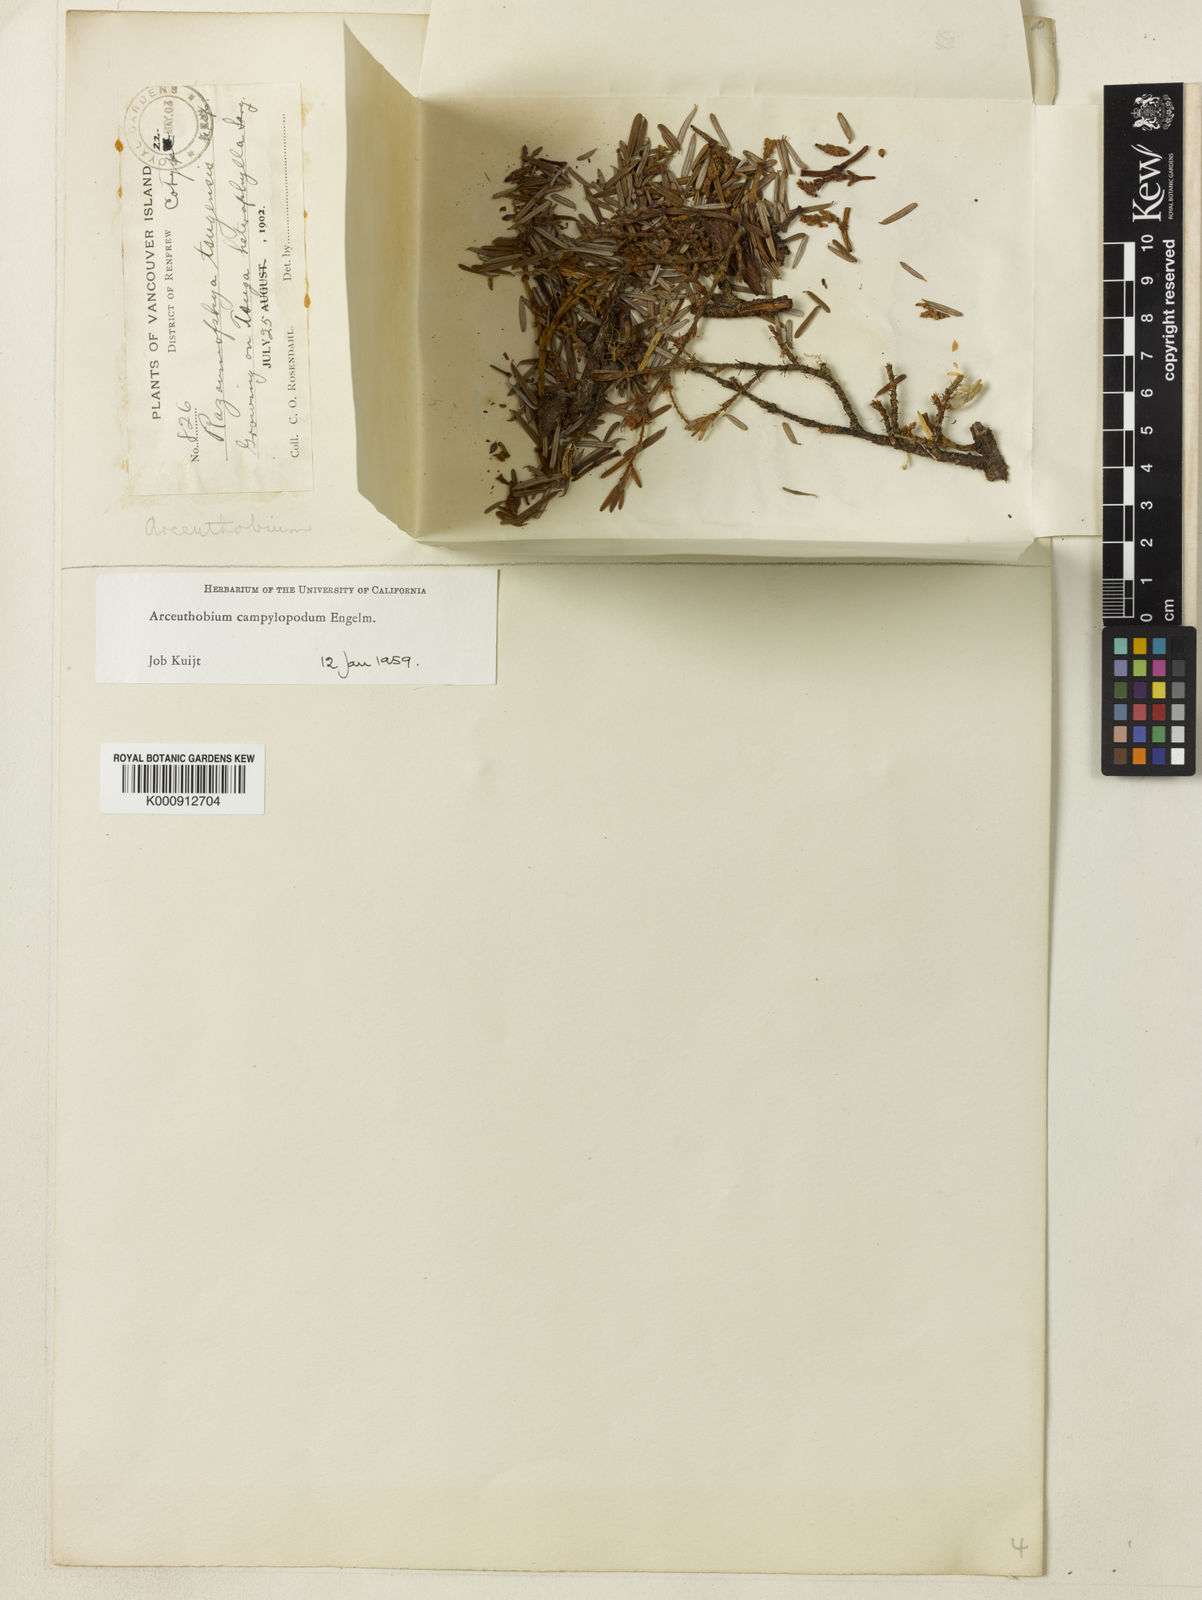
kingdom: Plantae
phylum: Tracheophyta
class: Magnoliopsida
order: Santalales
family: Viscaceae
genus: Arceuthobium
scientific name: Arceuthobium campylopodum
